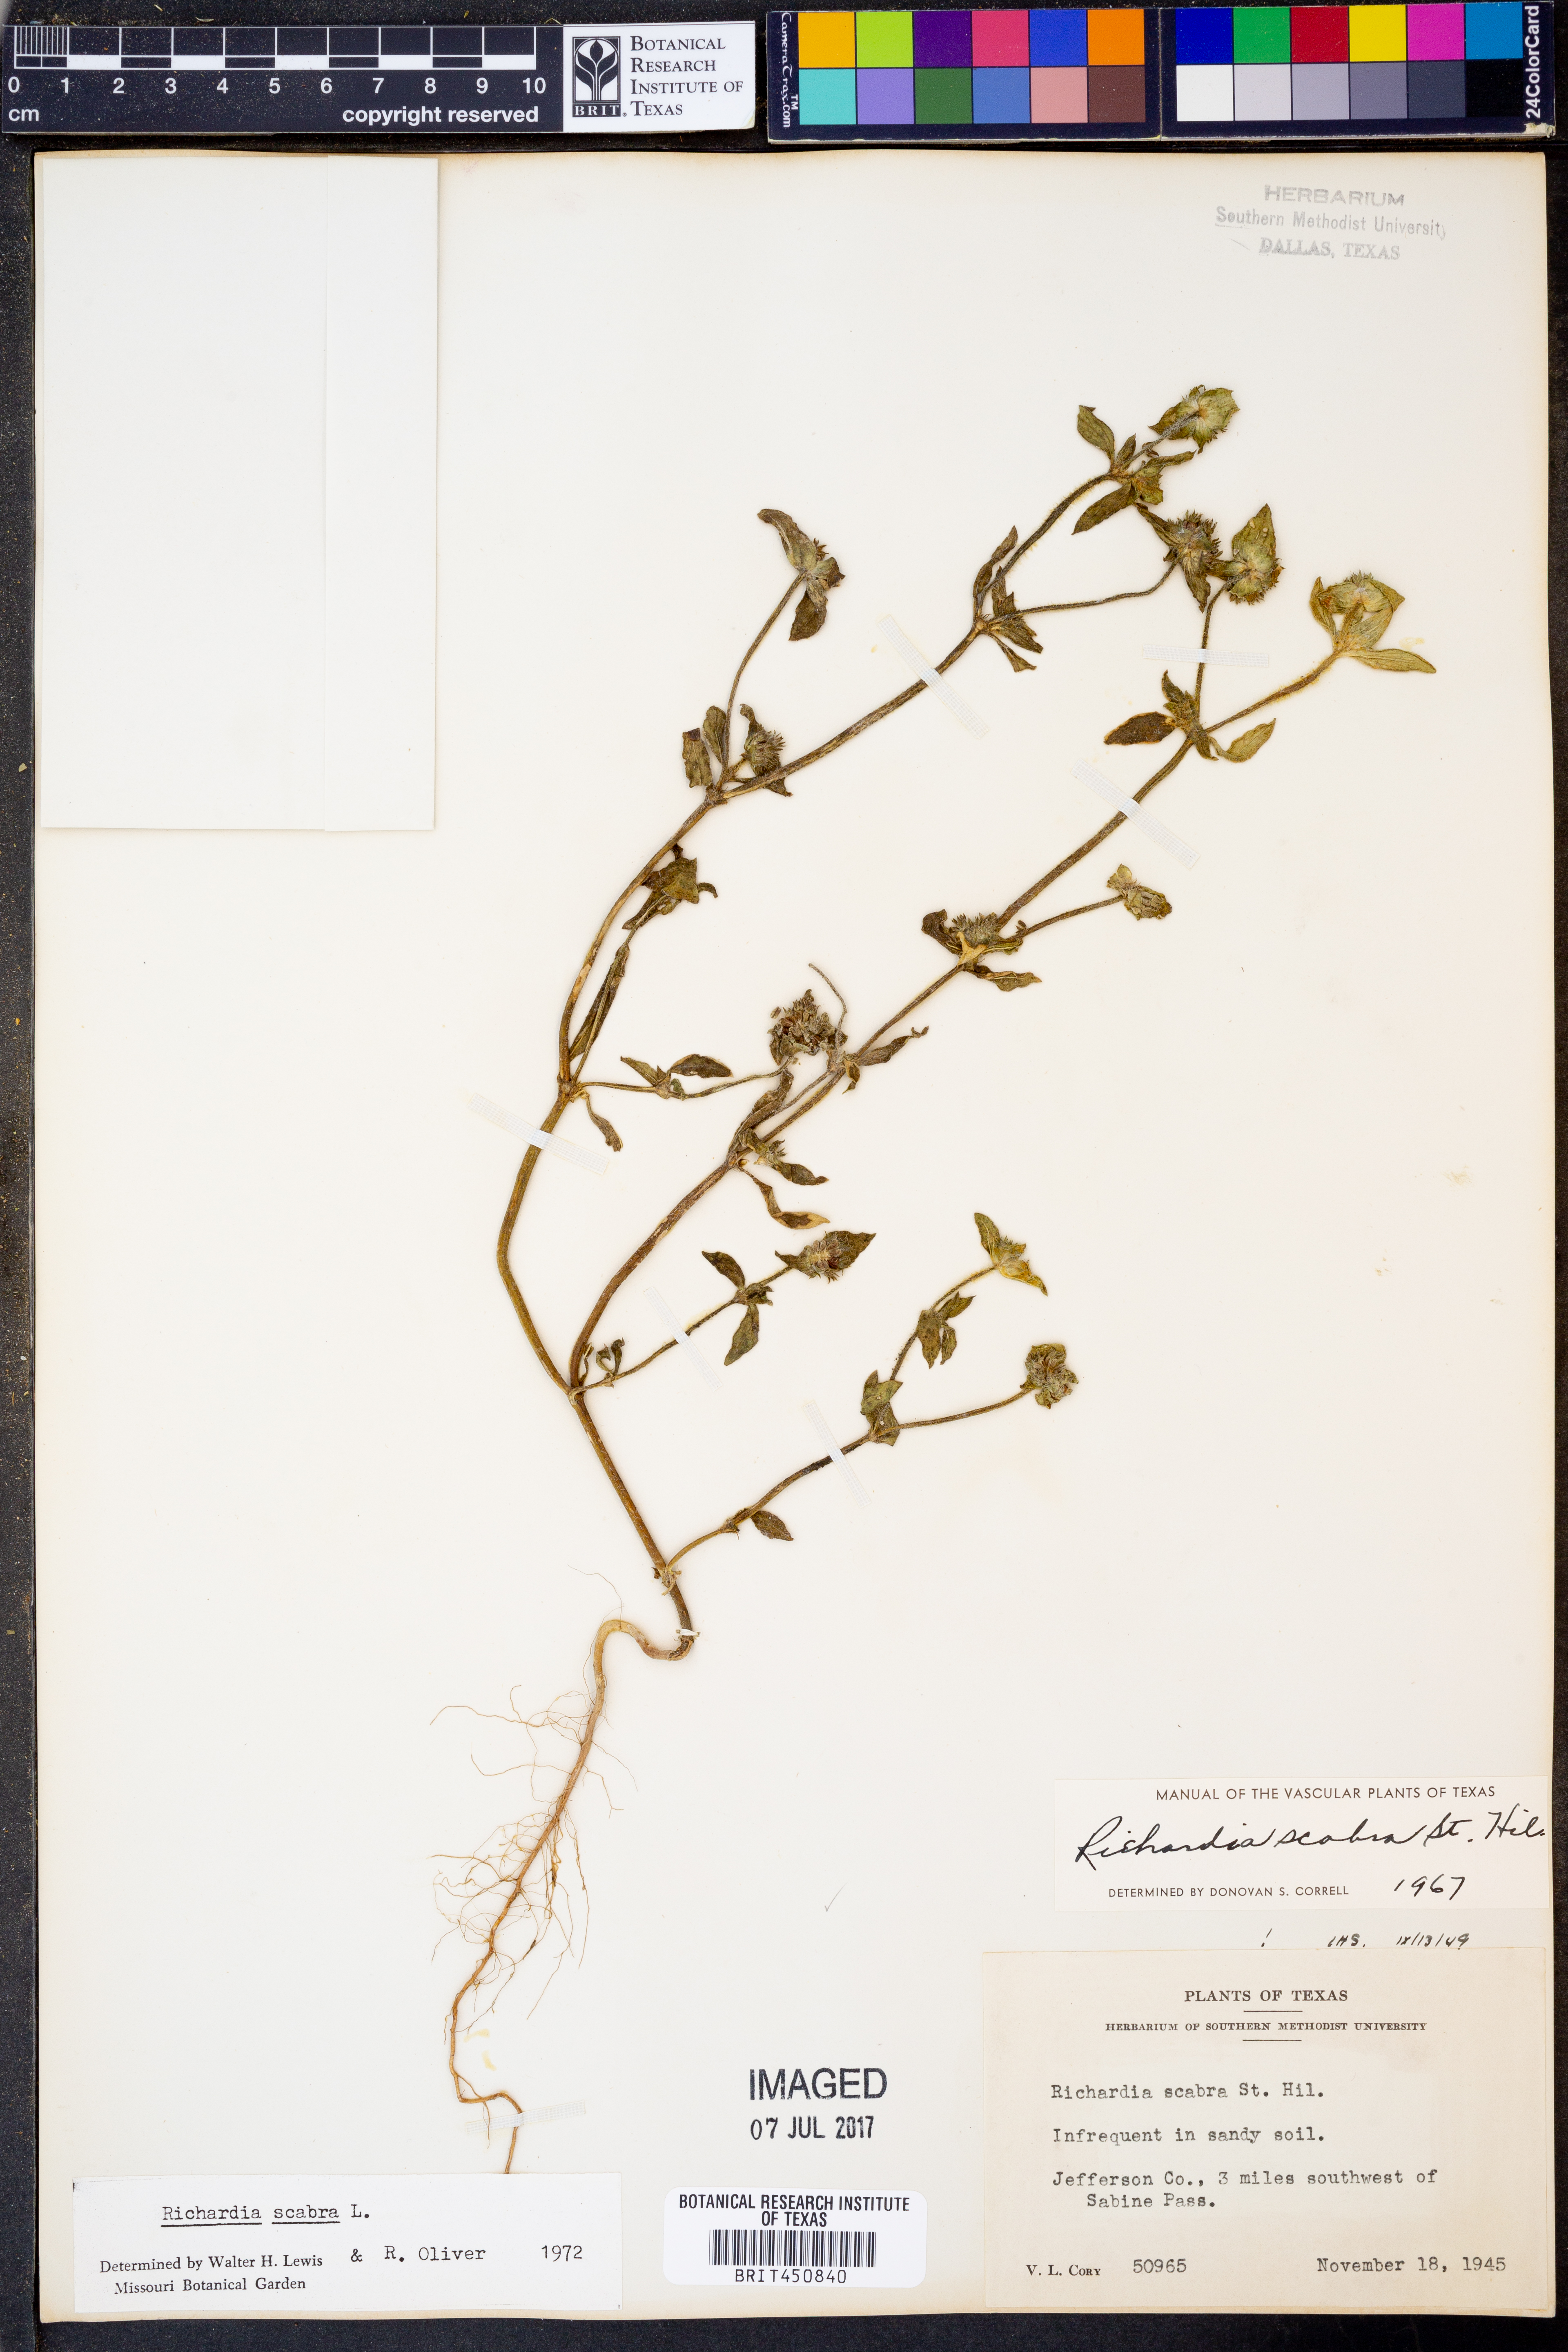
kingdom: Plantae
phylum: Tracheophyta
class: Magnoliopsida
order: Gentianales
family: Rubiaceae
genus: Richardia
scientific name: Richardia scabra
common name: Rough mexican clover
